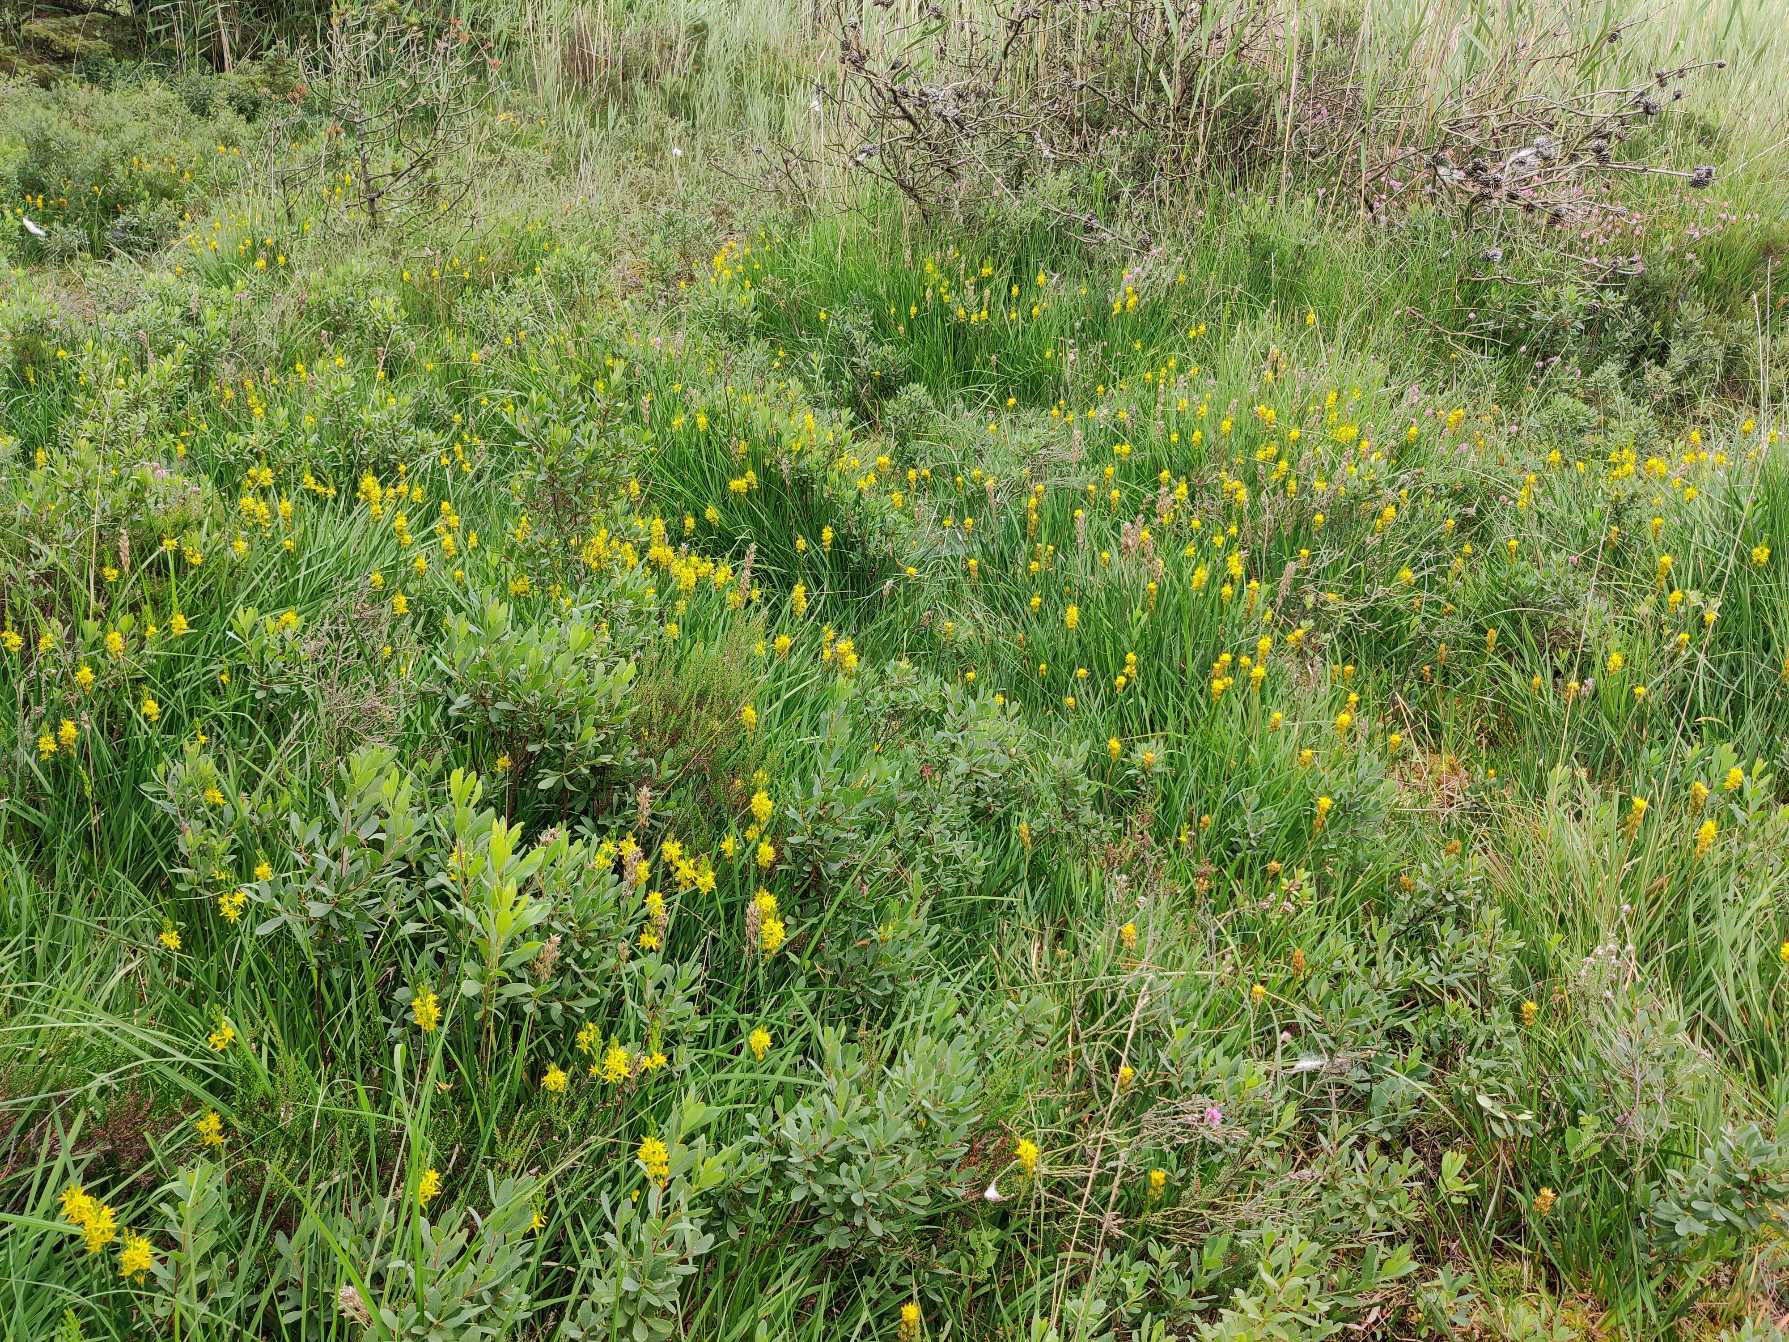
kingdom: Plantae
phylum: Tracheophyta
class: Liliopsida
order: Dioscoreales
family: Nartheciaceae
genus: Narthecium
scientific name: Narthecium ossifragum
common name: Benbræk
